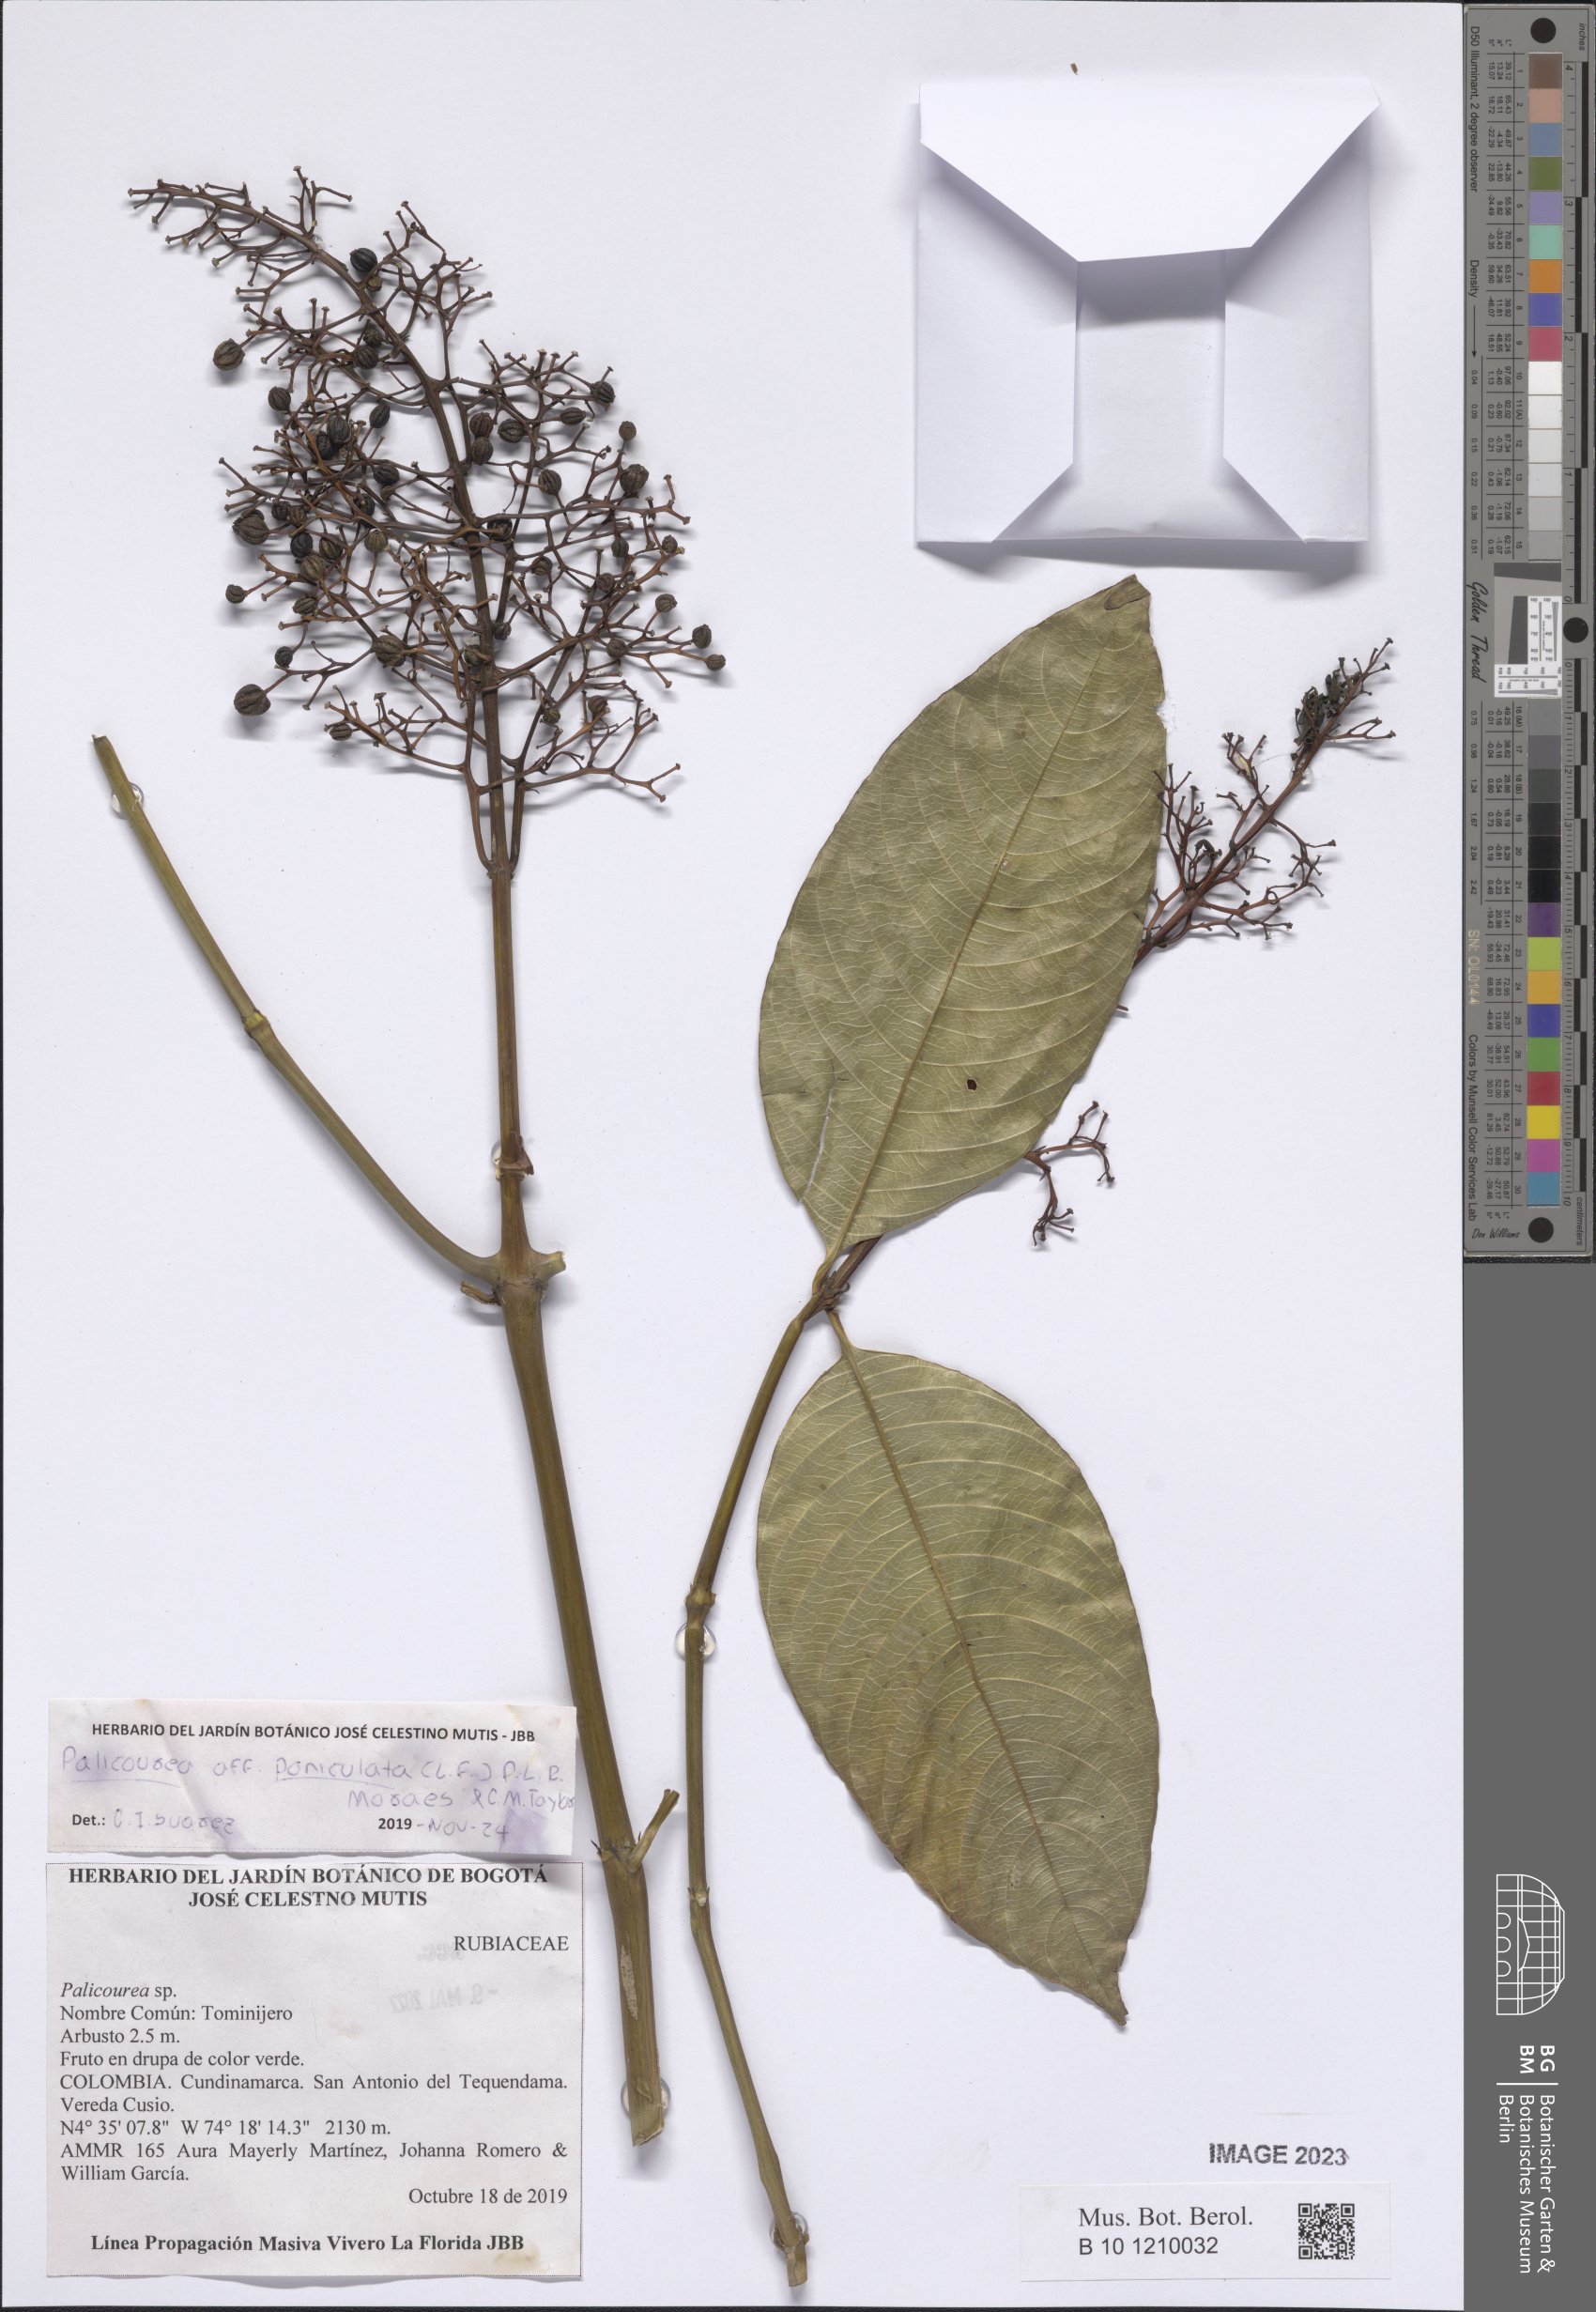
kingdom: Plantae
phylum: Tracheophyta
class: Magnoliopsida
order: Gentianales
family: Rubiaceae
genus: Palicourea
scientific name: Palicourea paniculata
